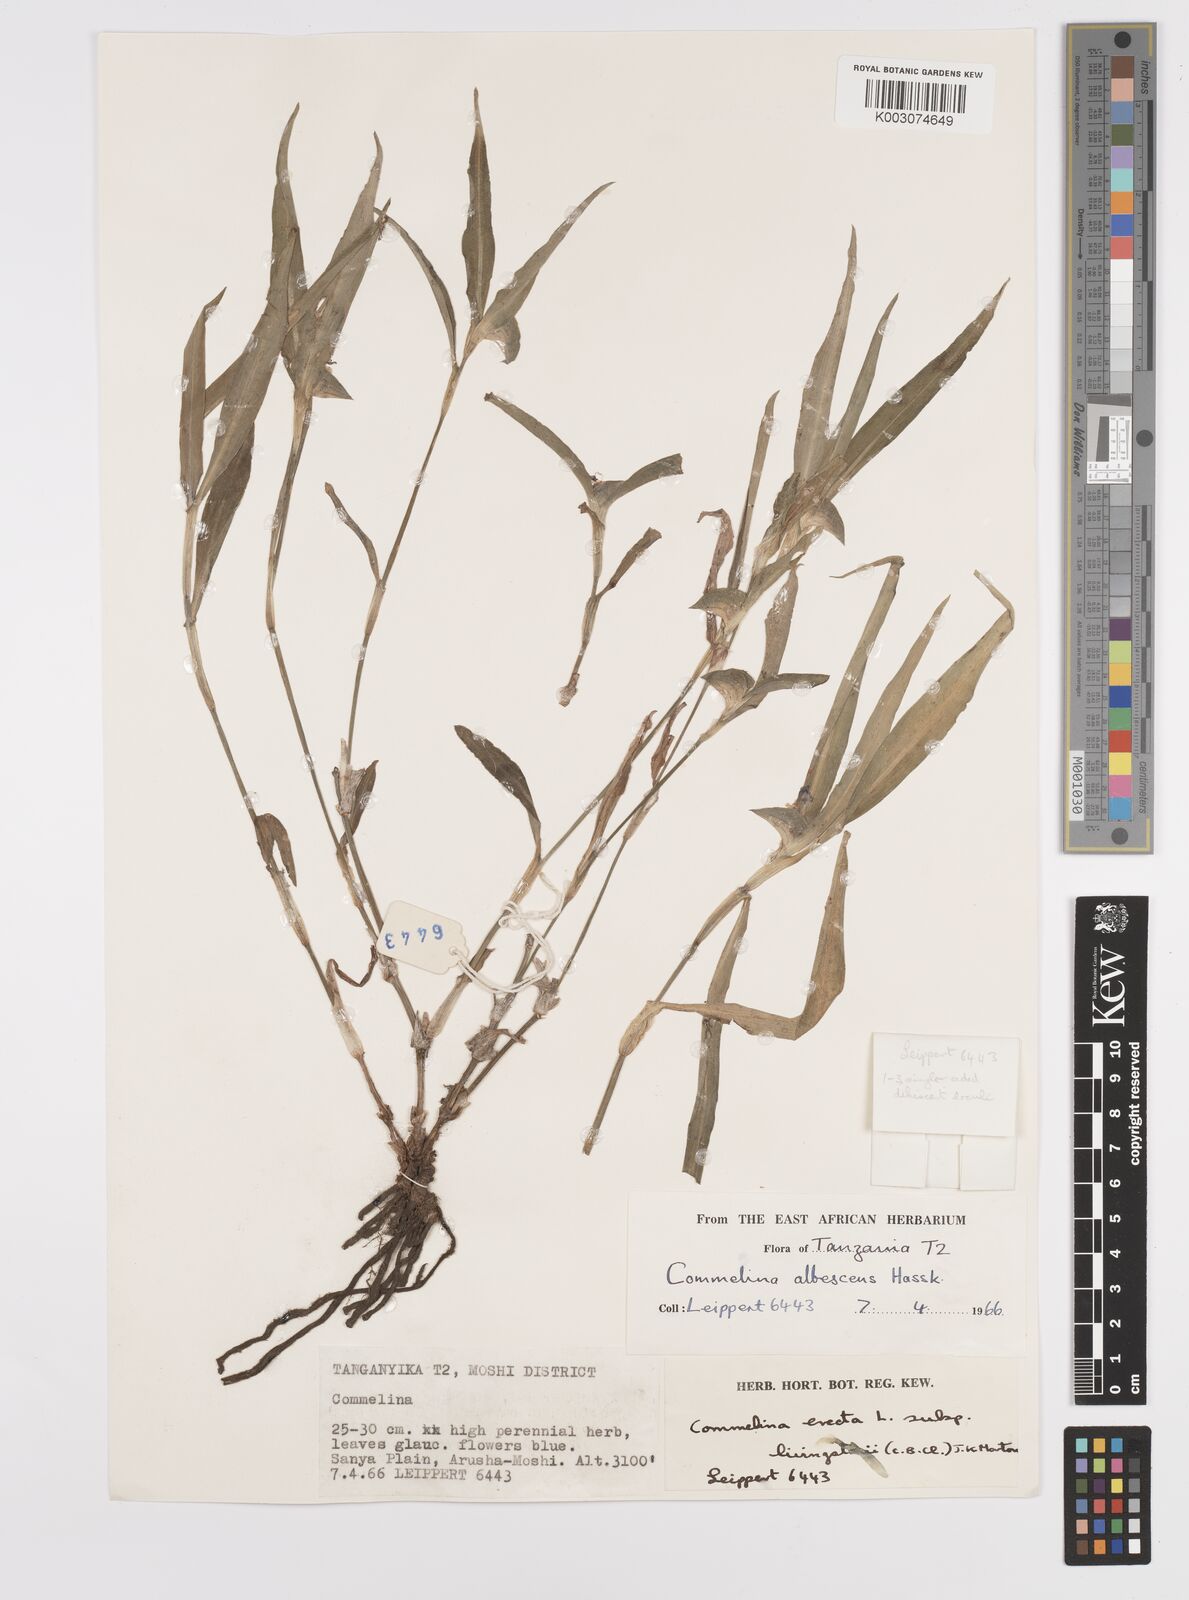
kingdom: Plantae
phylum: Tracheophyta
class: Liliopsida
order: Commelinales
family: Commelinaceae
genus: Commelina
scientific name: Commelina erecta
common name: Blousel blommetjie
